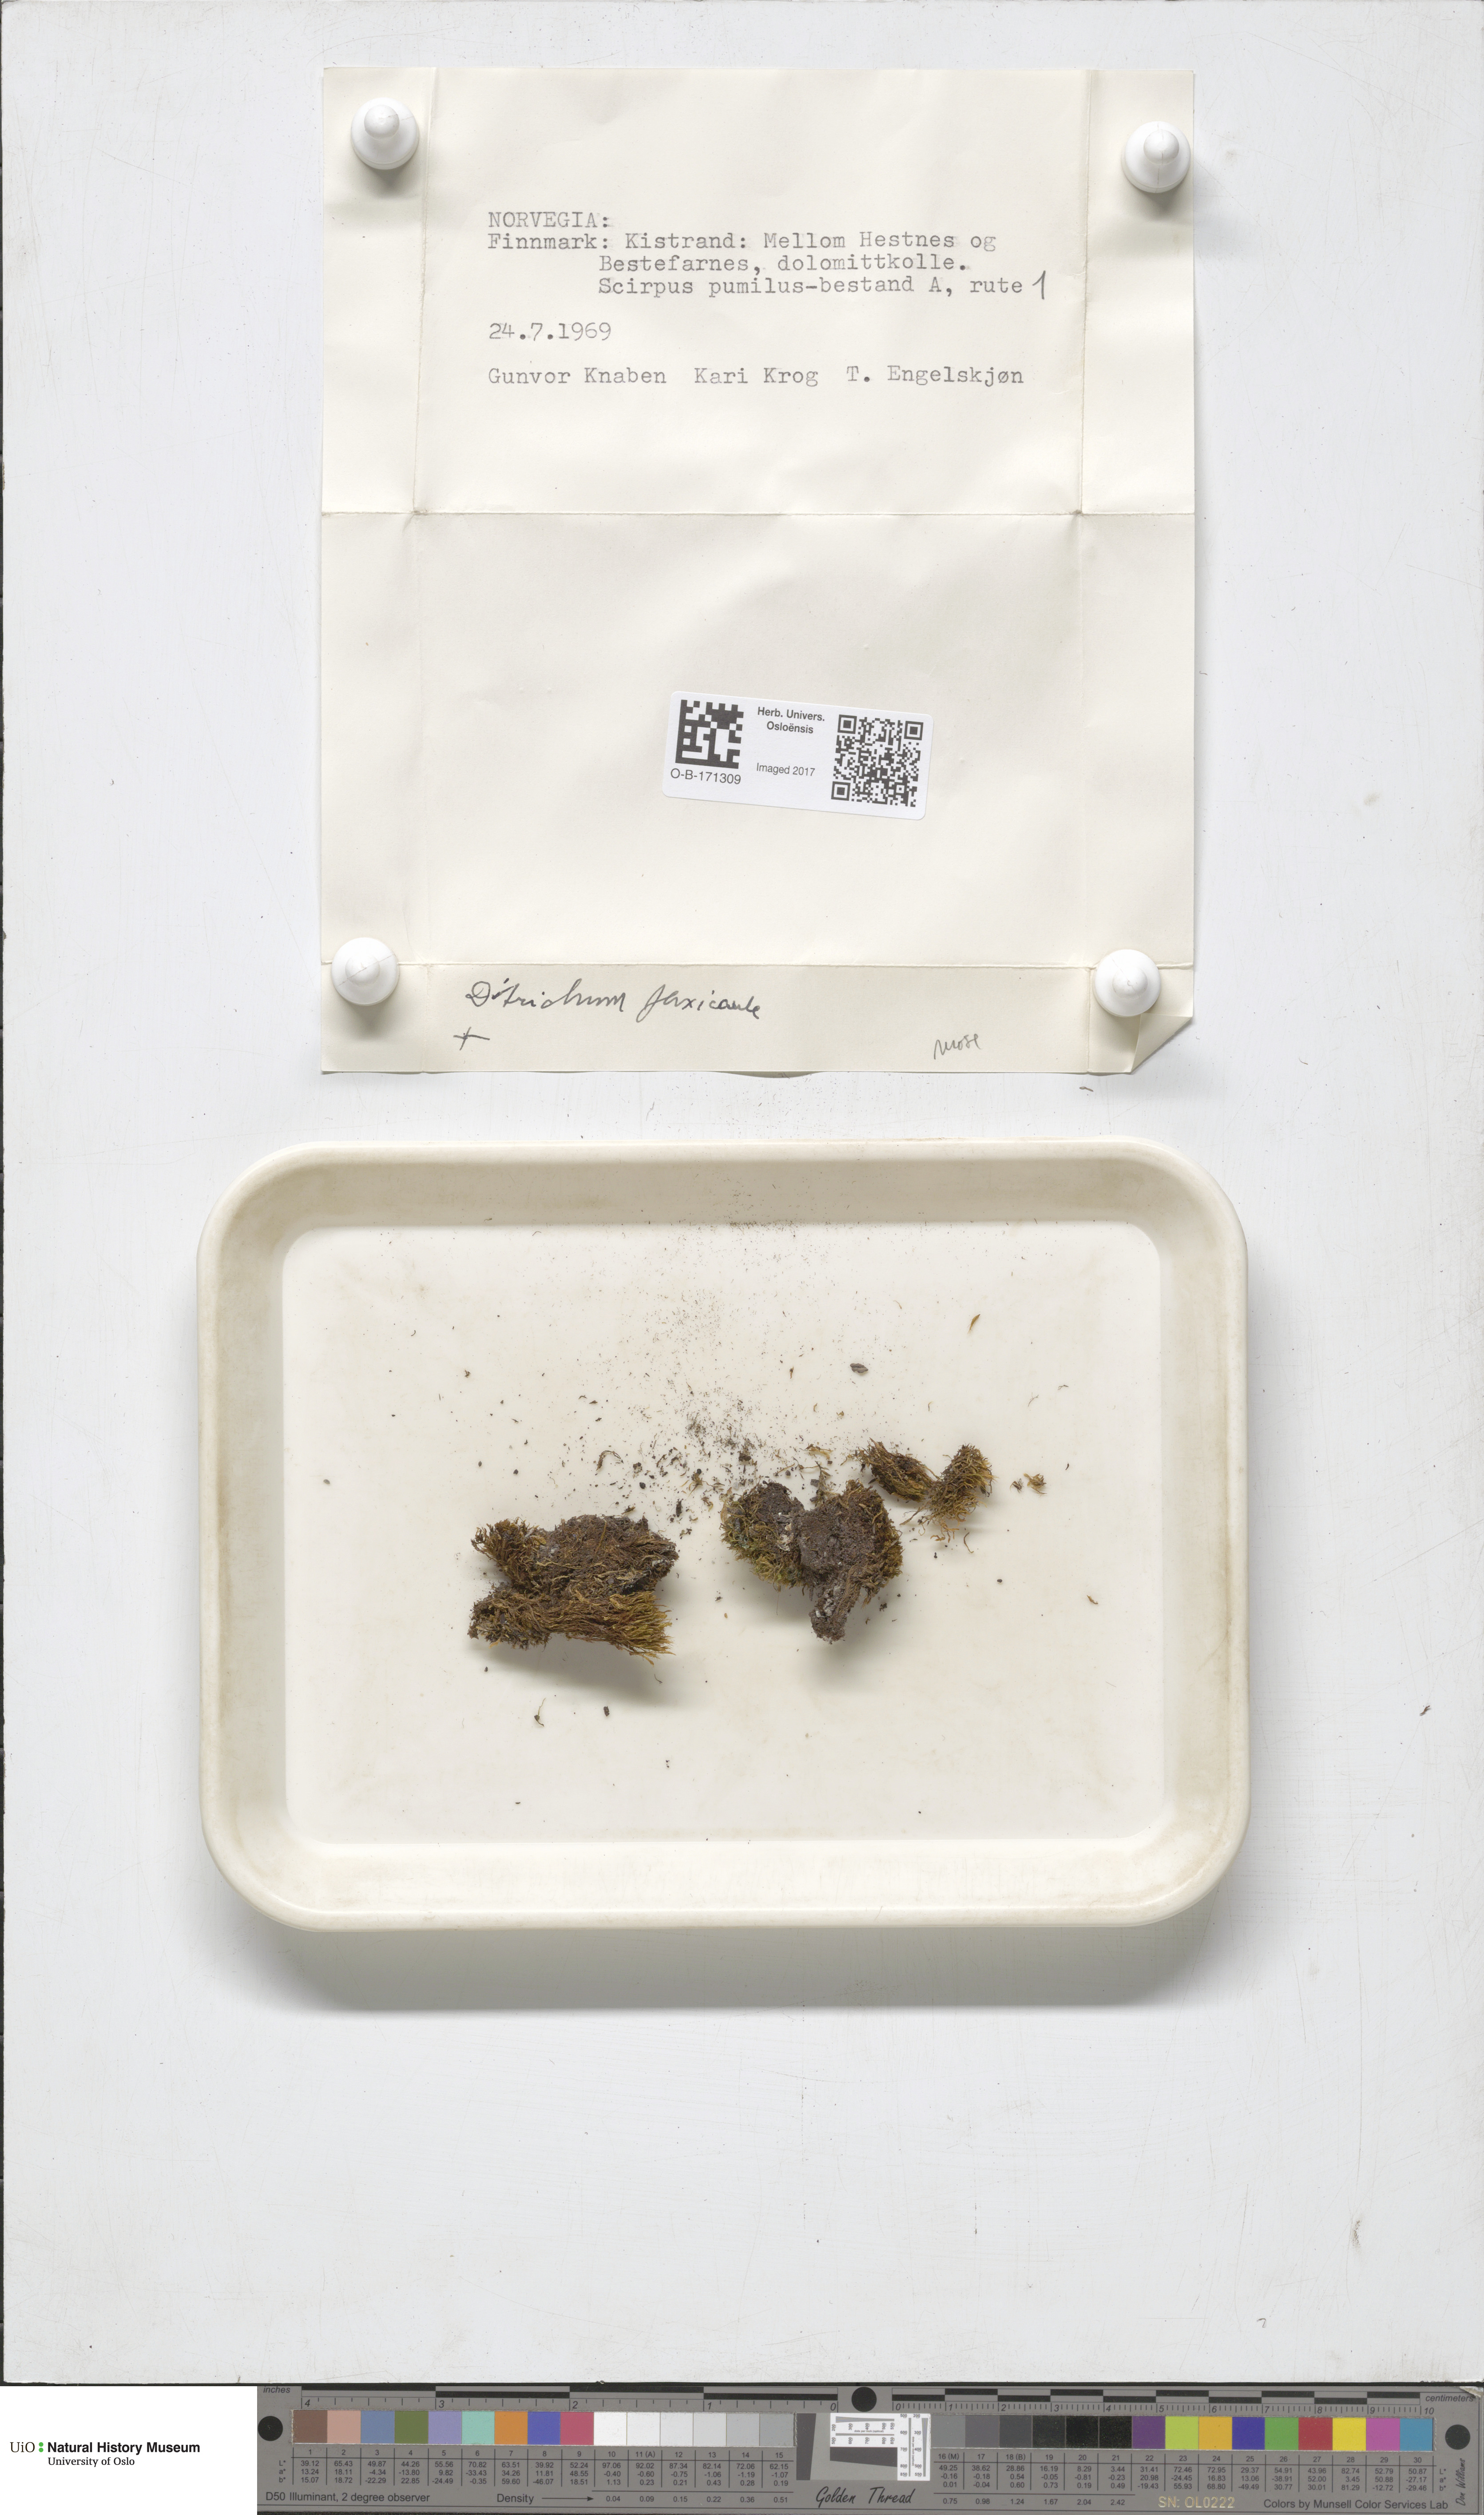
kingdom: Plantae
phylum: Bryophyta
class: Bryopsida
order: Scouleriales
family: Flexitrichaceae
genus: Flexitrichum
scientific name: Flexitrichum flexicaule
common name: Bendy ditrichum
